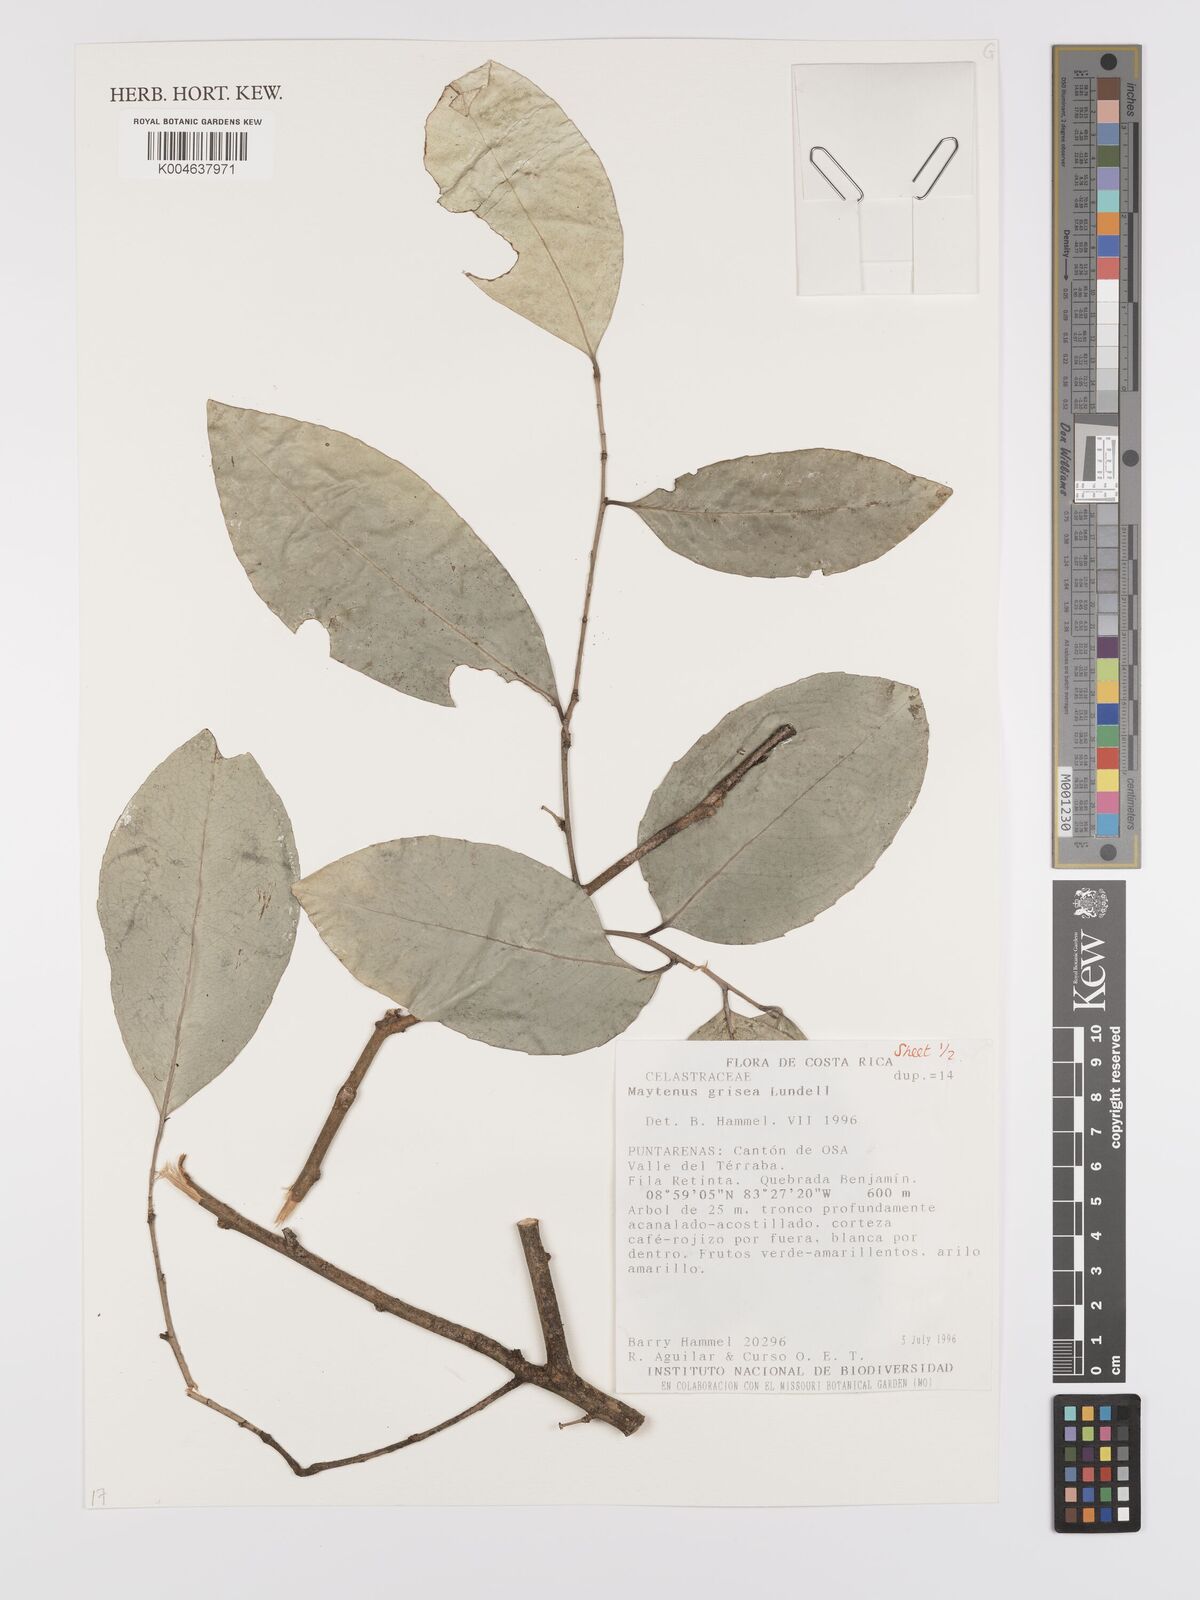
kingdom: Plantae
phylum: Tracheophyta
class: Magnoliopsida
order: Celastrales
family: Celastraceae
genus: Maytenus
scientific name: Maytenus grisea
